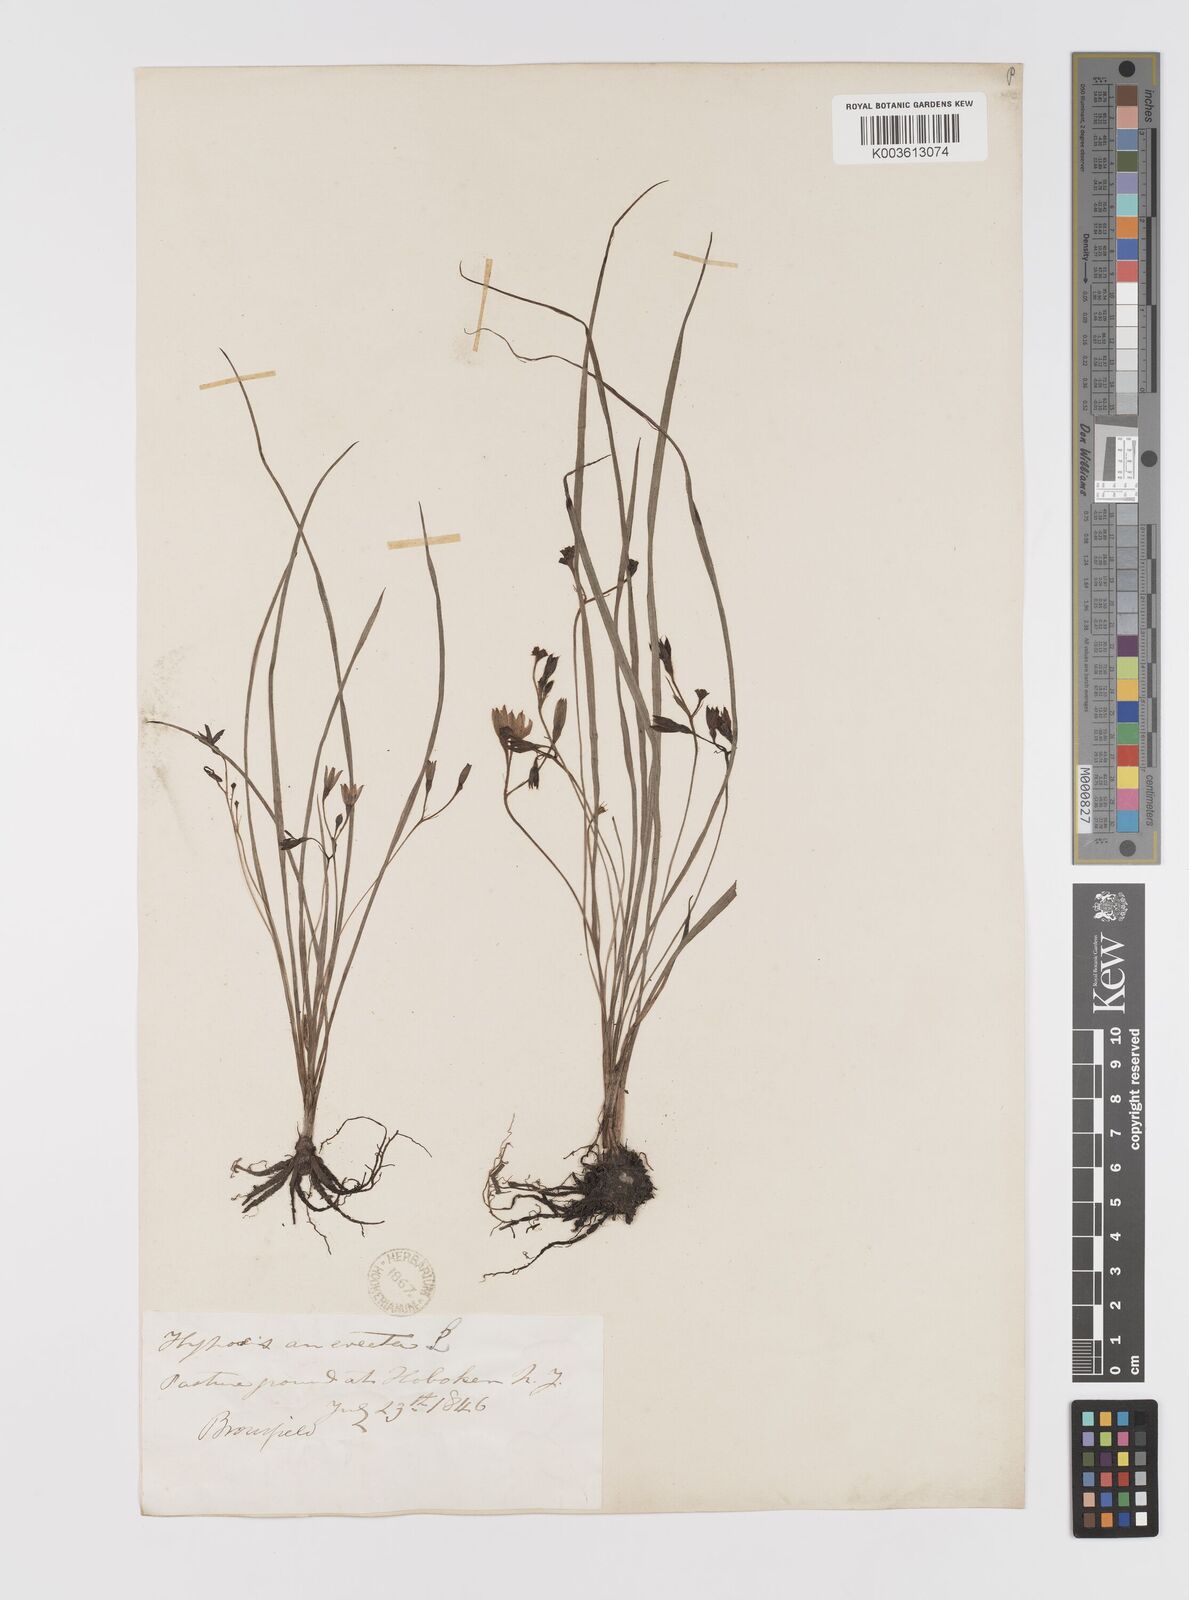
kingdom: Plantae
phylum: Tracheophyta
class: Liliopsida
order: Asparagales
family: Hypoxidaceae
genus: Hypoxis
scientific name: Hypoxis hirsuta
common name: Common goldstar
